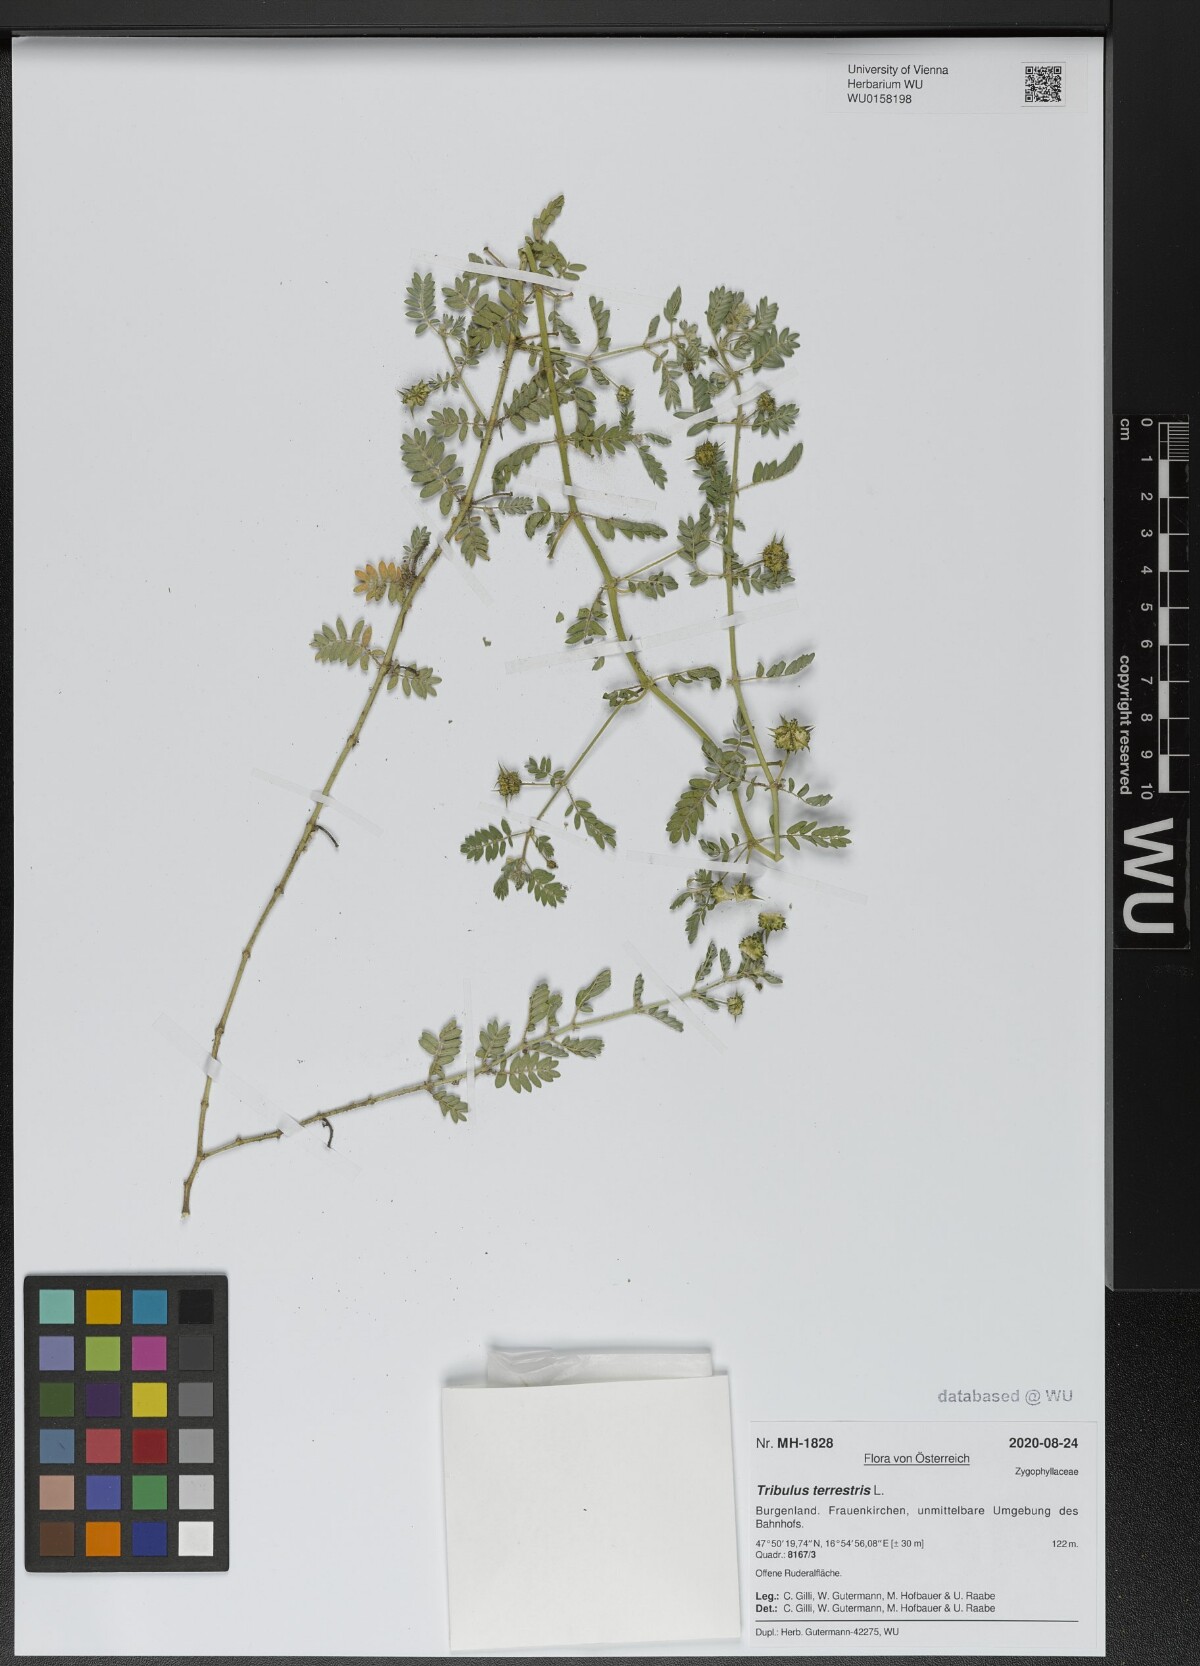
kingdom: Plantae
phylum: Tracheophyta
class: Magnoliopsida
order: Zygophyllales
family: Zygophyllaceae
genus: Tribulus
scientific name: Tribulus terrestris
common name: Puncturevine
